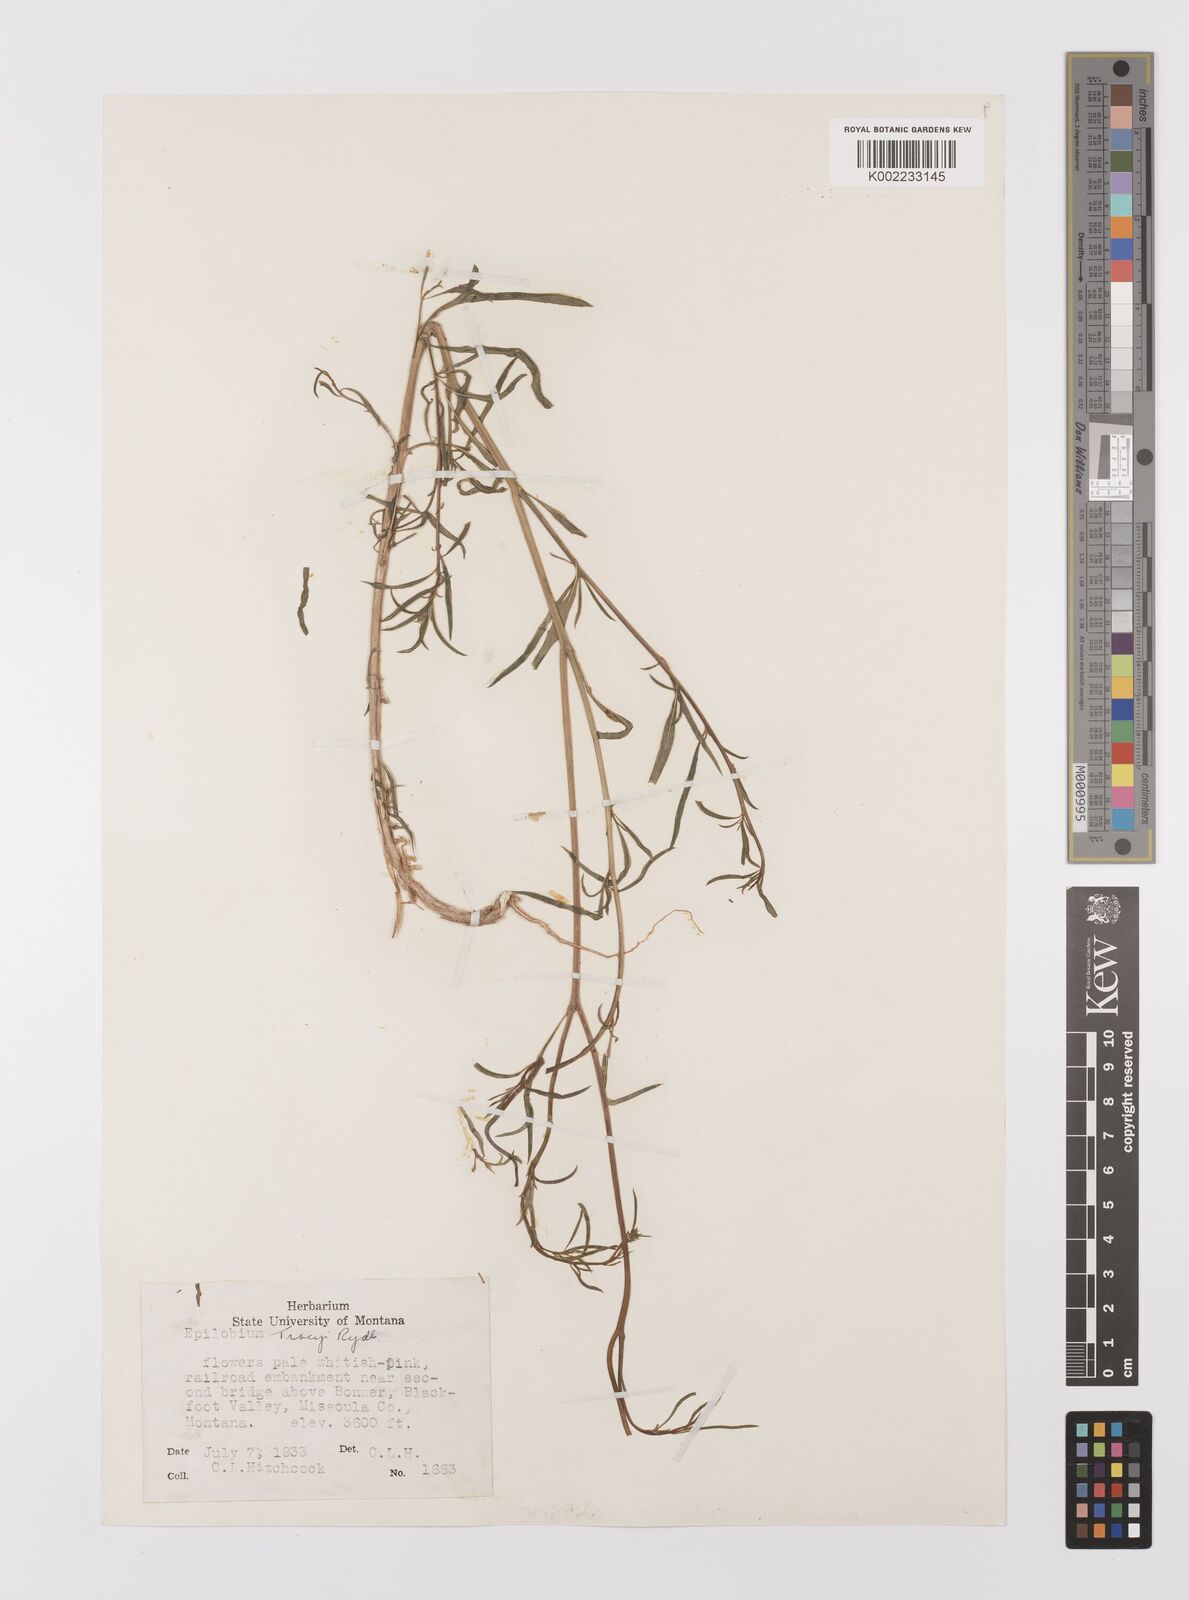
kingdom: Plantae
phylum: Tracheophyta
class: Magnoliopsida
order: Myrtales
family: Onagraceae
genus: Epilobium
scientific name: Epilobium brachycarpum
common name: Annual willowherb
